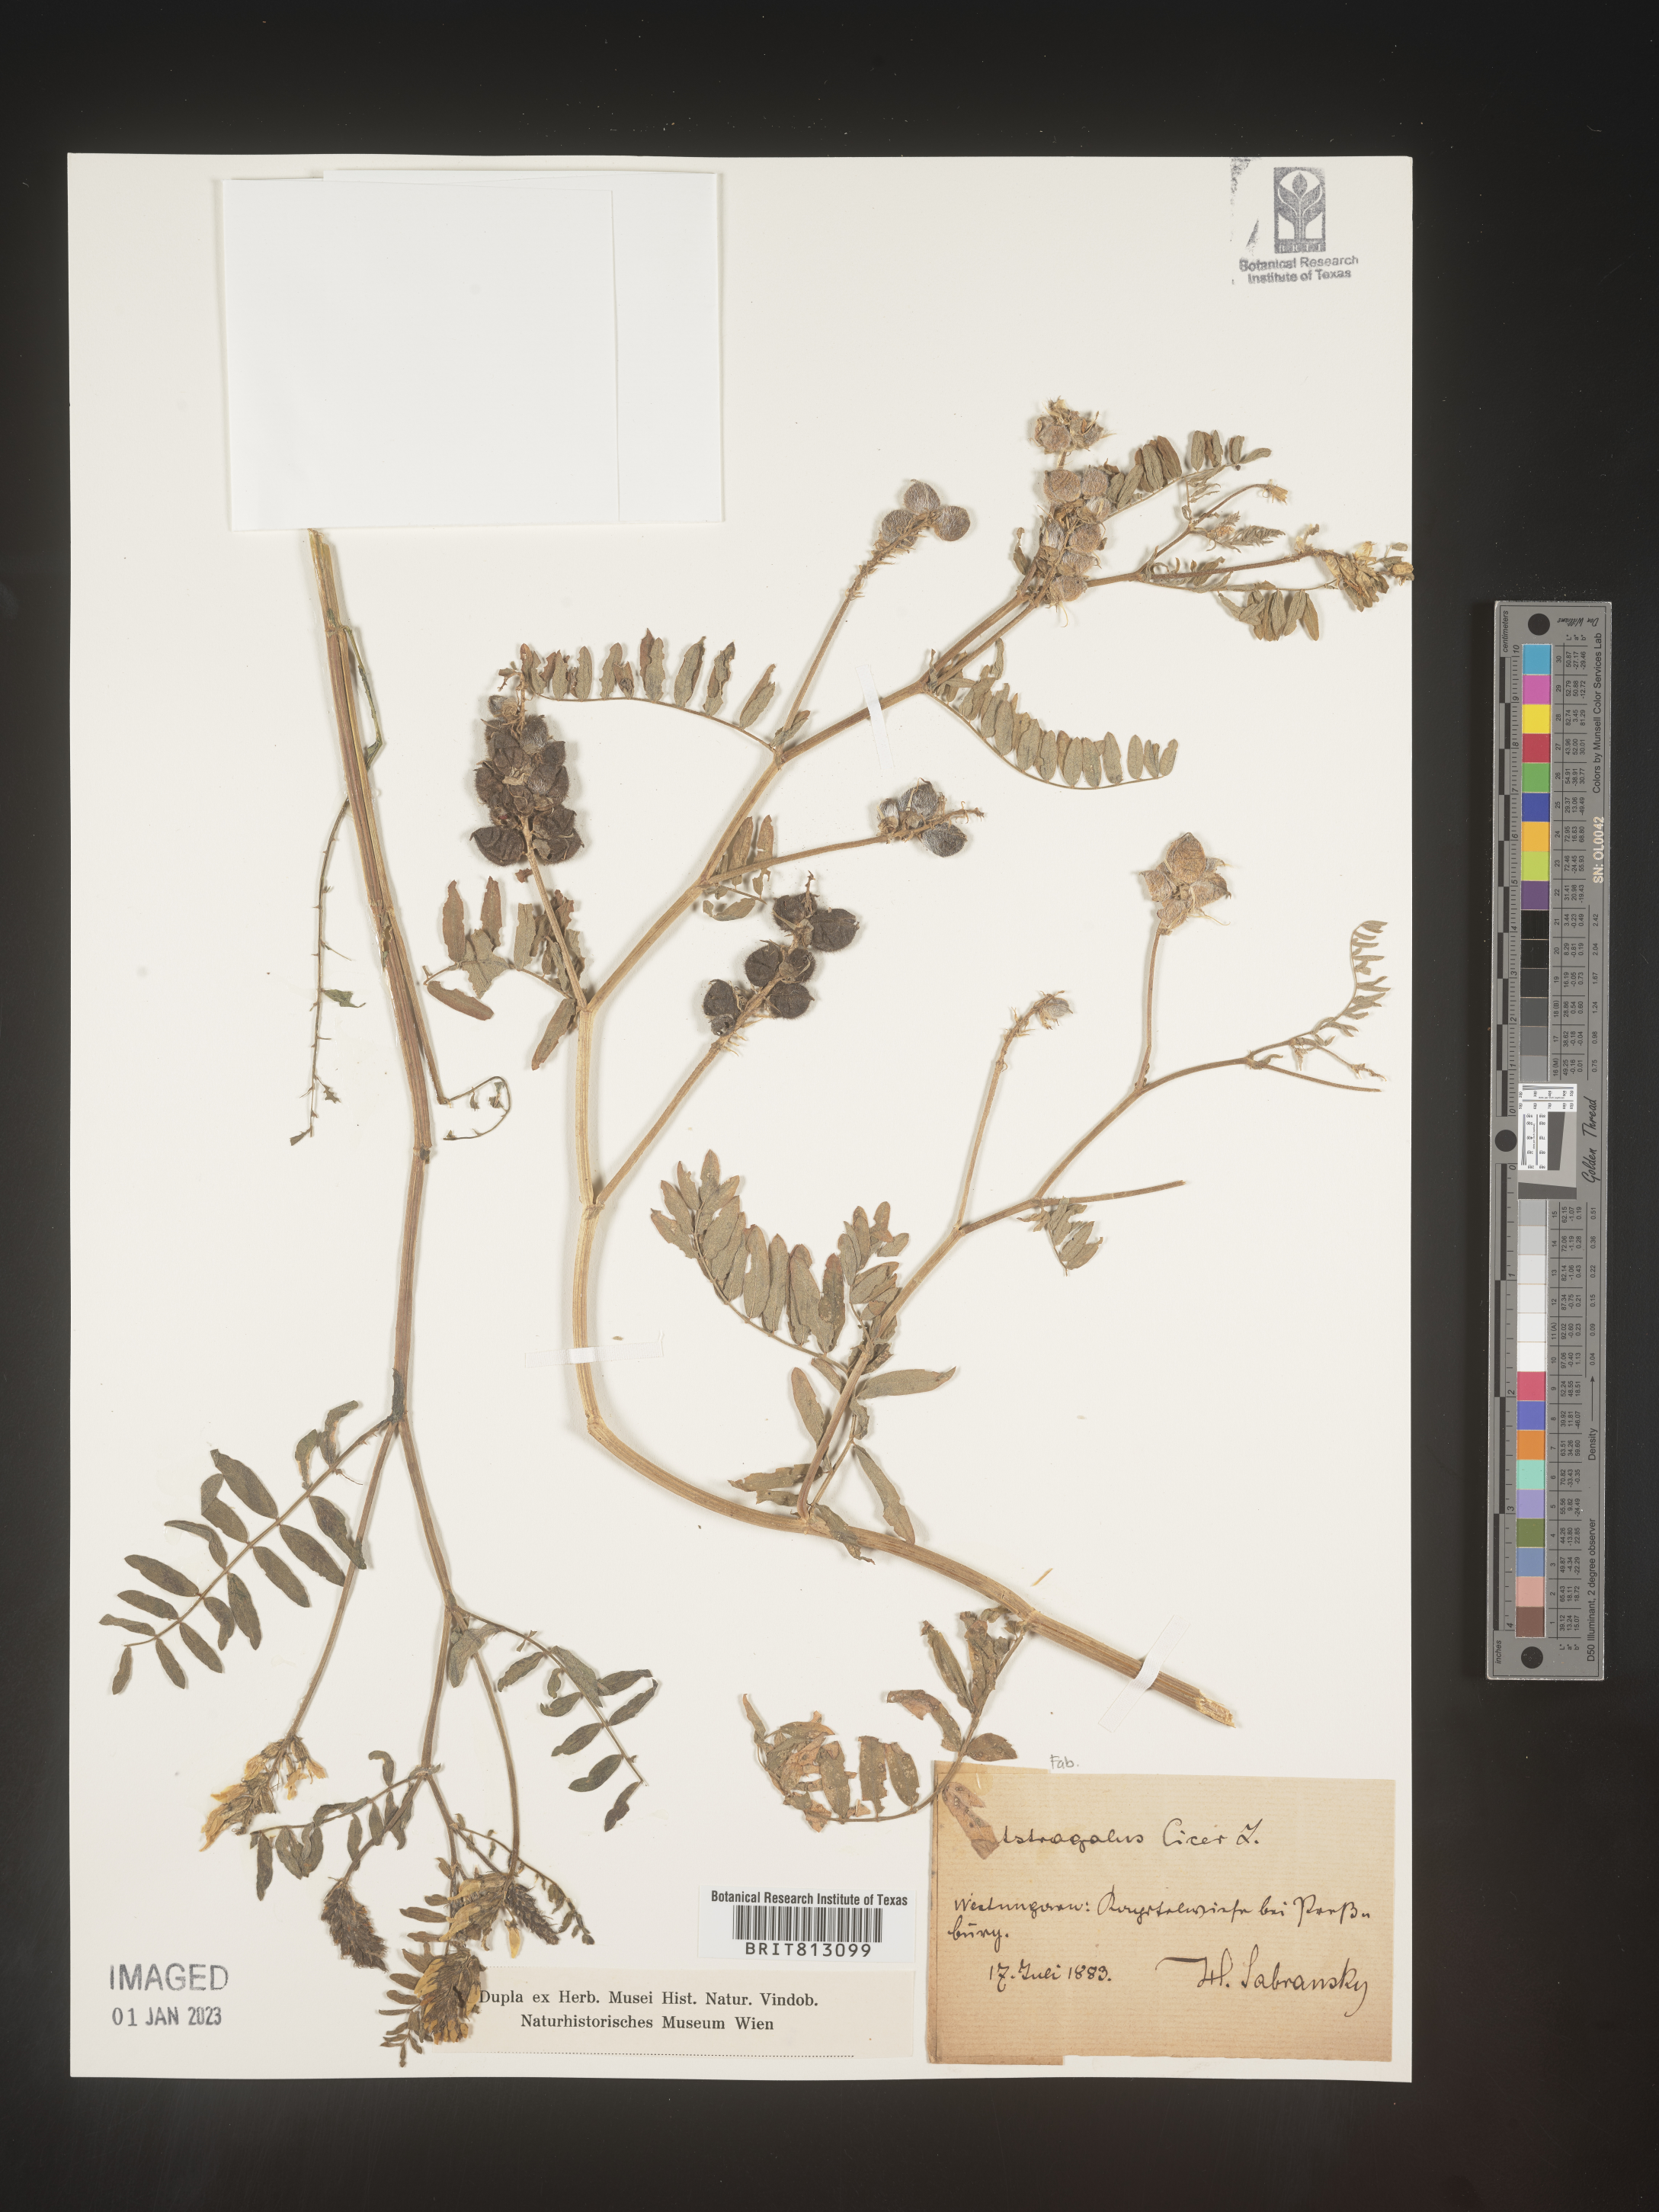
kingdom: Plantae
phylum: Tracheophyta
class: Magnoliopsida
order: Fabales
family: Fabaceae
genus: Astragalus
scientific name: Astragalus
